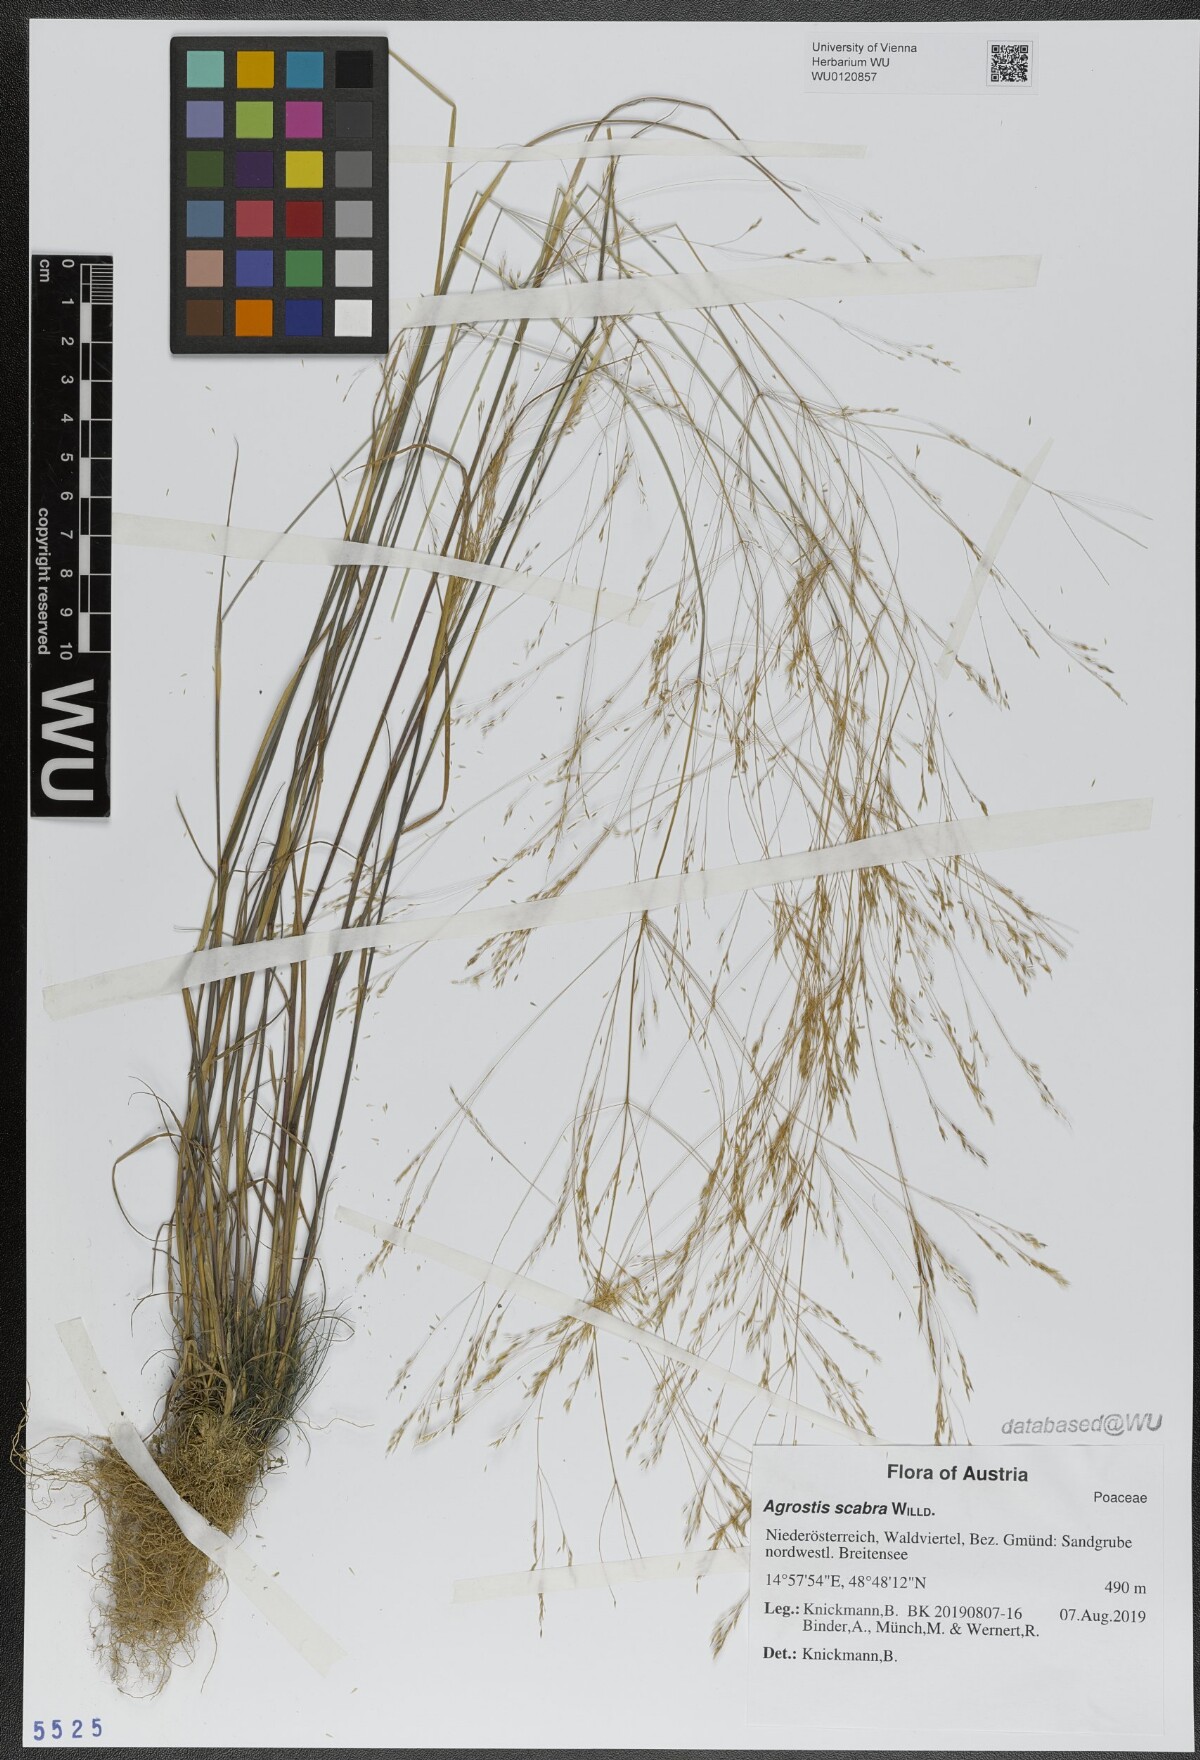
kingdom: Plantae
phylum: Tracheophyta
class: Liliopsida
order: Poales
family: Poaceae
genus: Agrostis
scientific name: Agrostis scabra
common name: Rough bent
